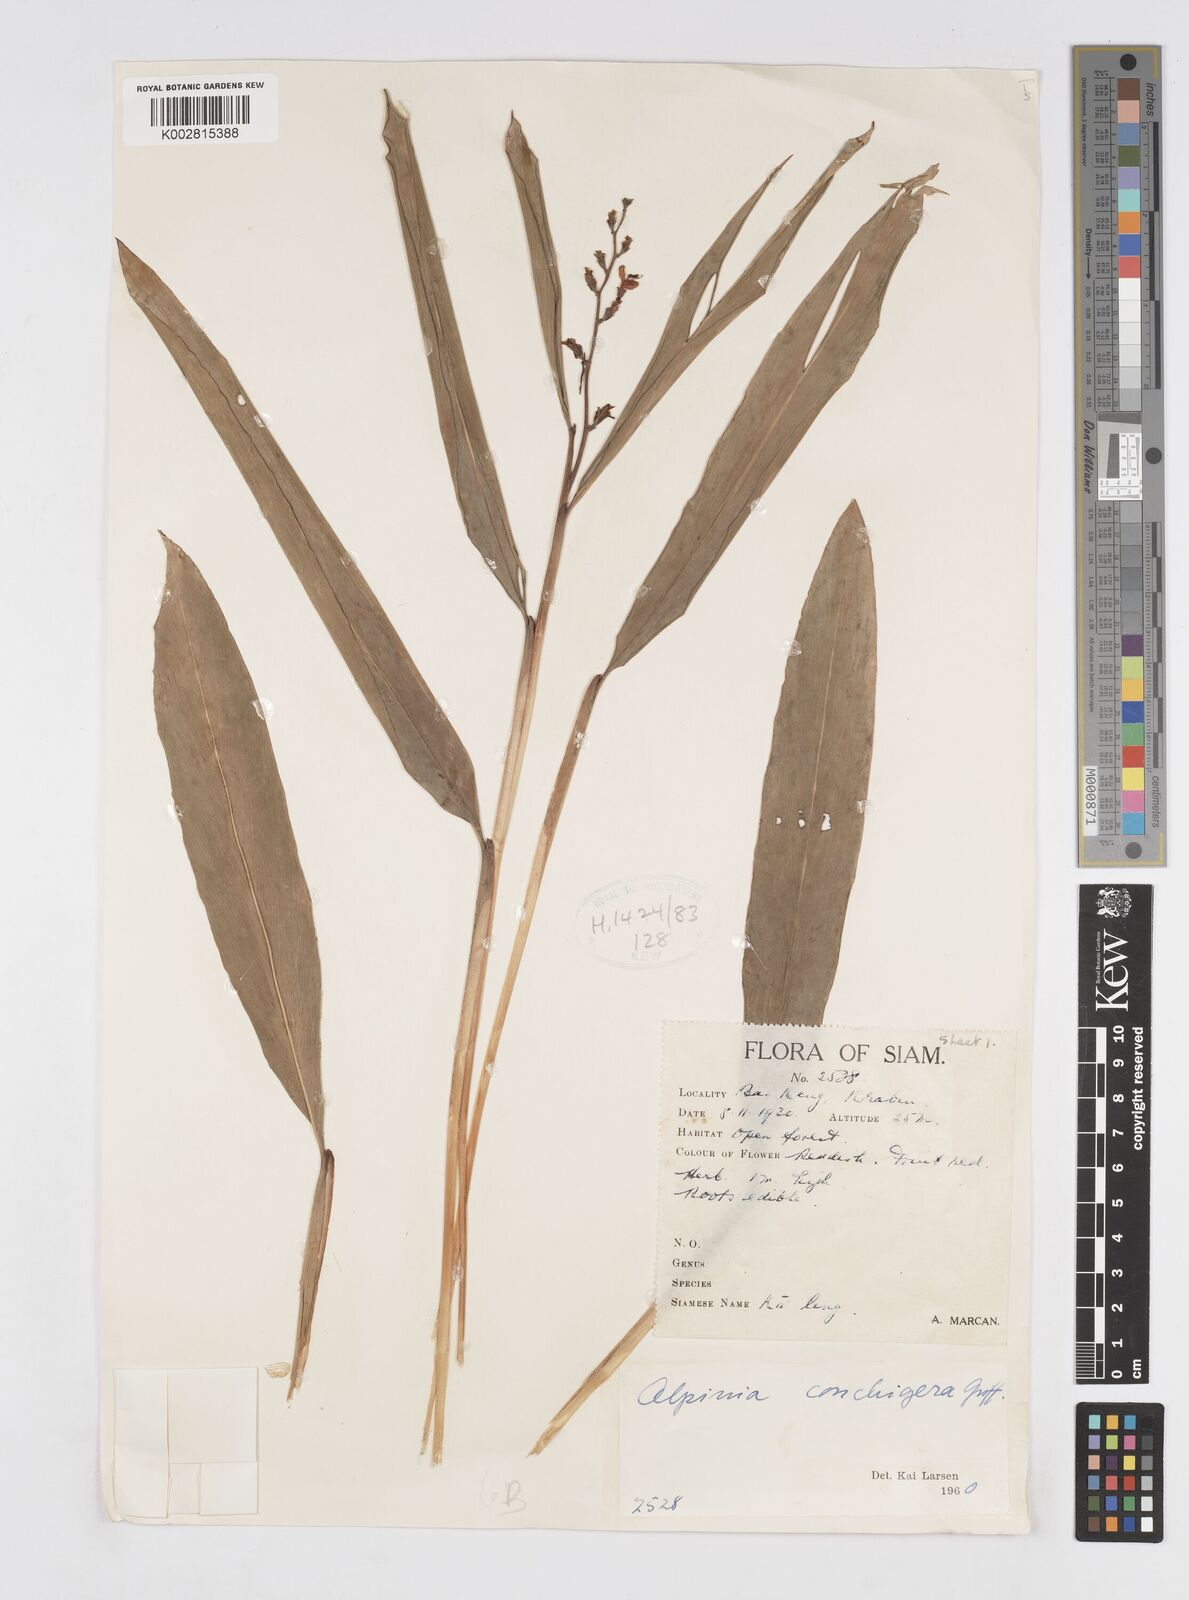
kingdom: Plantae
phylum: Tracheophyta
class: Liliopsida
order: Zingiberales
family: Zingiberaceae
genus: Alpinia
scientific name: Alpinia conchigera
